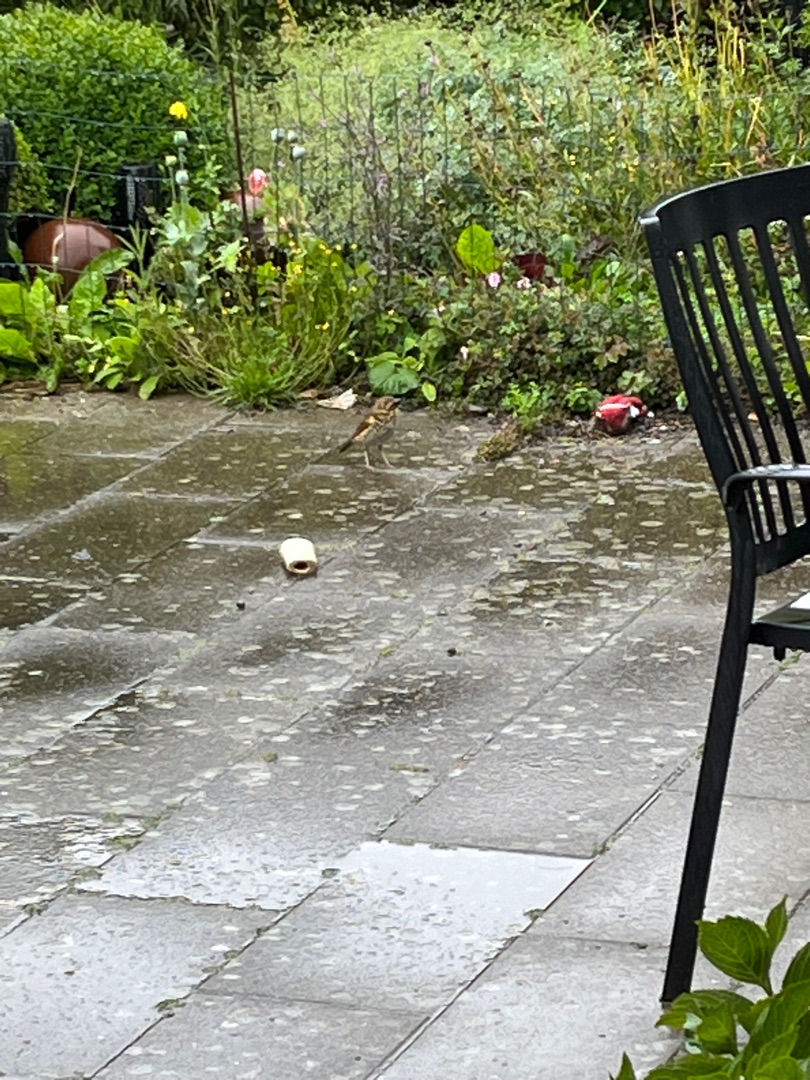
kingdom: Animalia
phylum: Chordata
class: Aves
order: Passeriformes
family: Turdidae
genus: Turdus
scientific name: Turdus philomelos
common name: Sangdrossel
